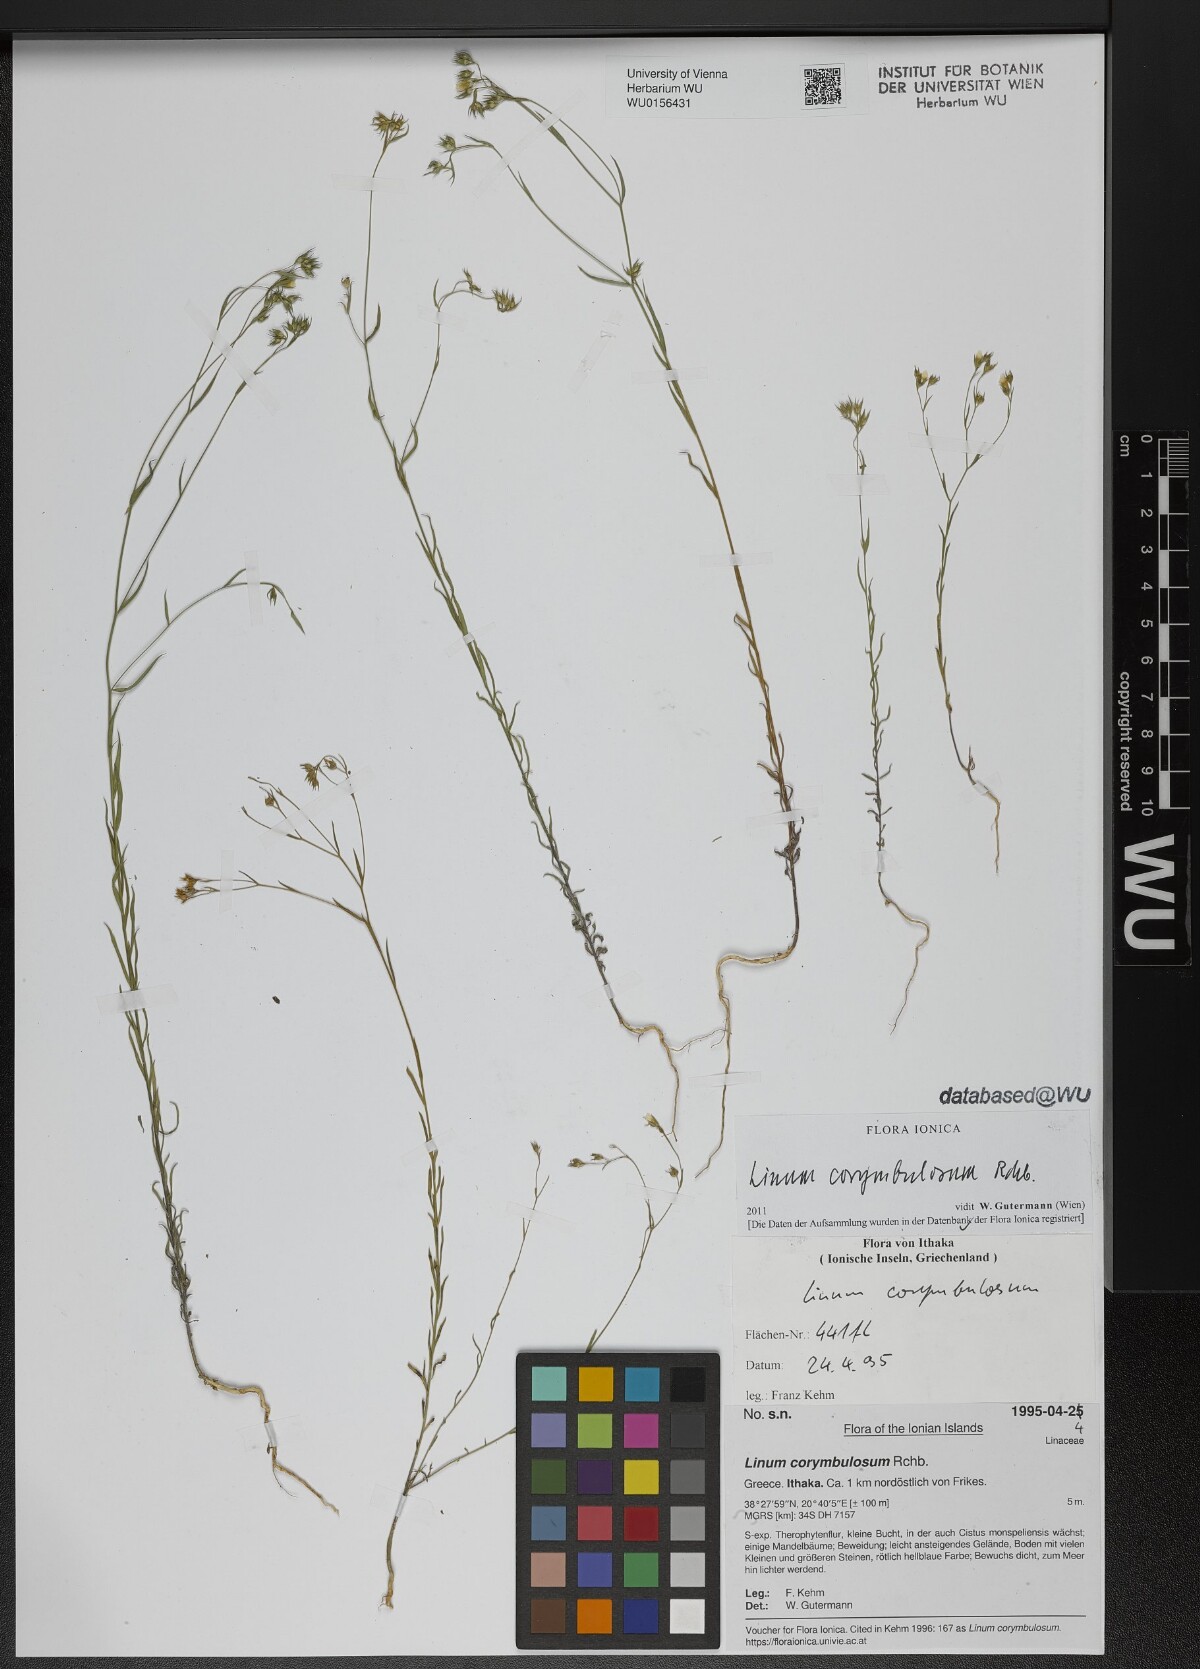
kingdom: Plantae
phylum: Tracheophyta
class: Magnoliopsida
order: Malpighiales
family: Linaceae
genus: Linum
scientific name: Linum corymbulosum
